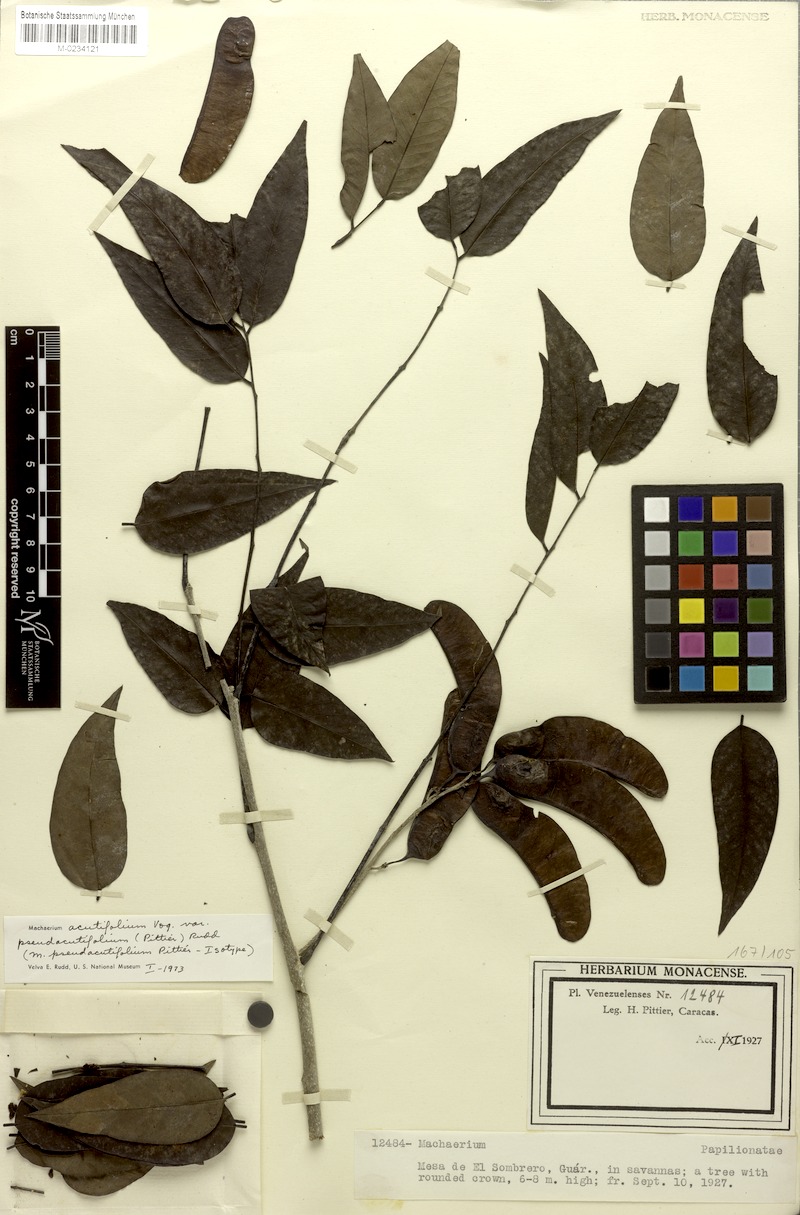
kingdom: Plantae
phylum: Tracheophyta
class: Magnoliopsida
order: Fabales
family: Fabaceae
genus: Machaerium
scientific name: Machaerium acutifolium
